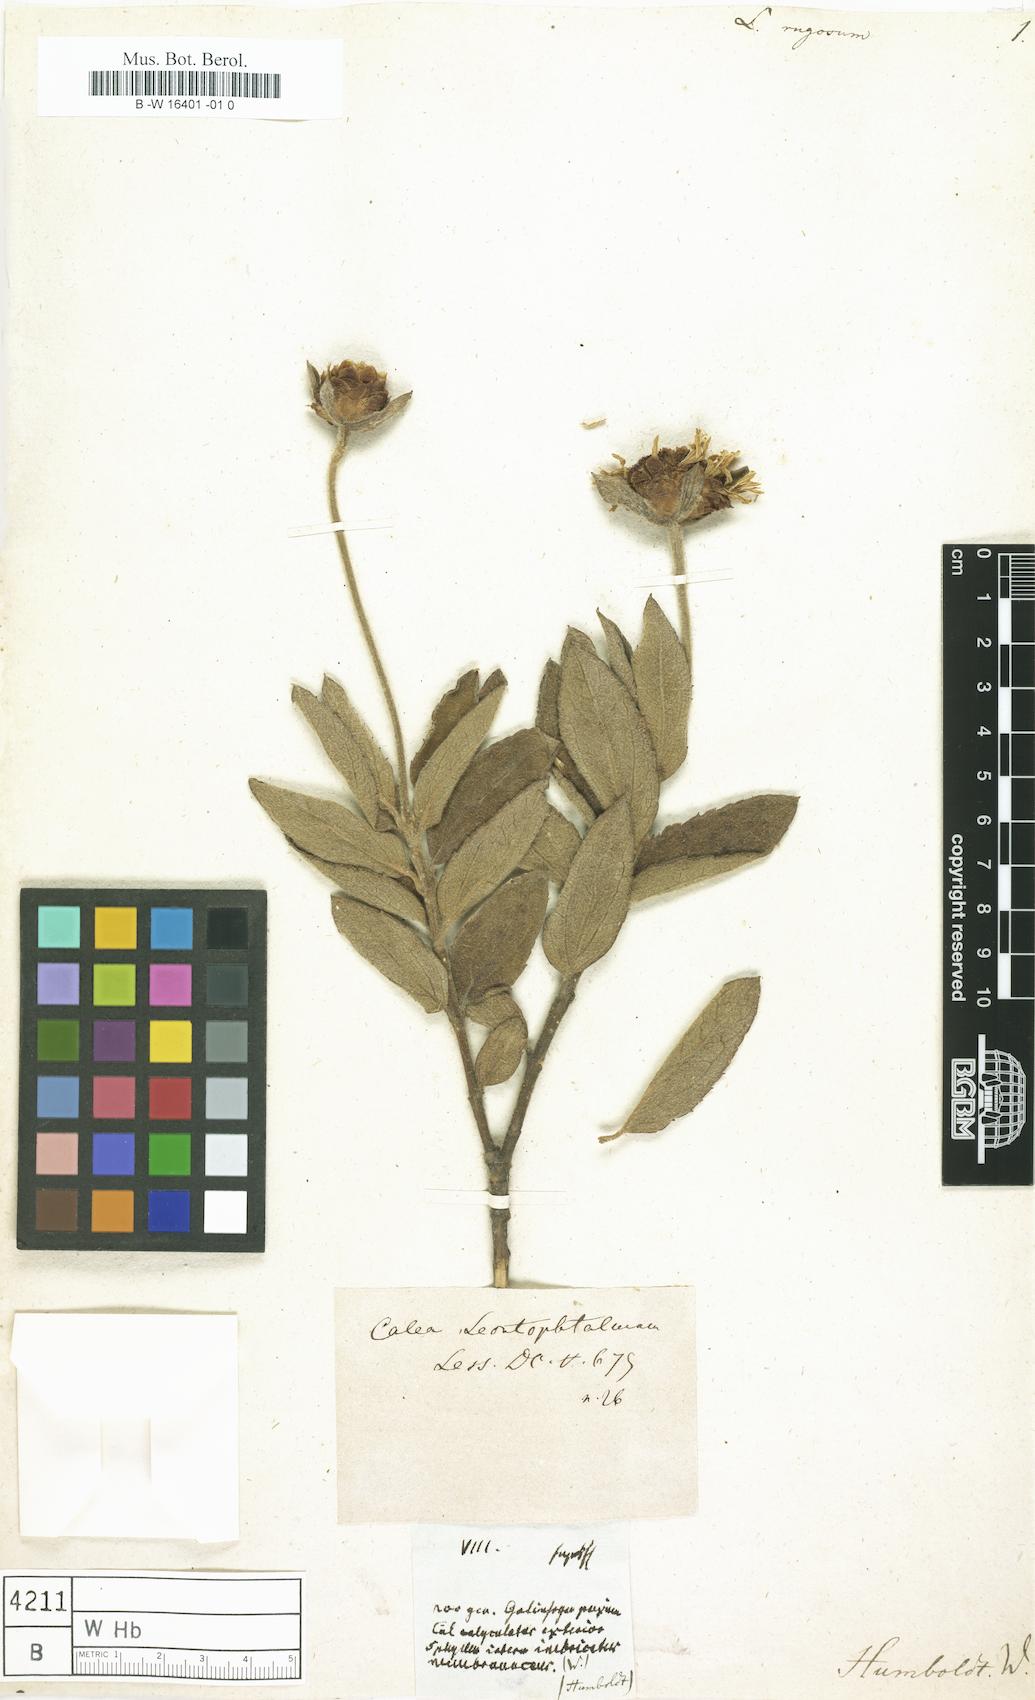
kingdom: Plantae
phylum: Tracheophyta
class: Magnoliopsida
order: Asterales
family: Asteraceae
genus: Calea
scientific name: Calea
